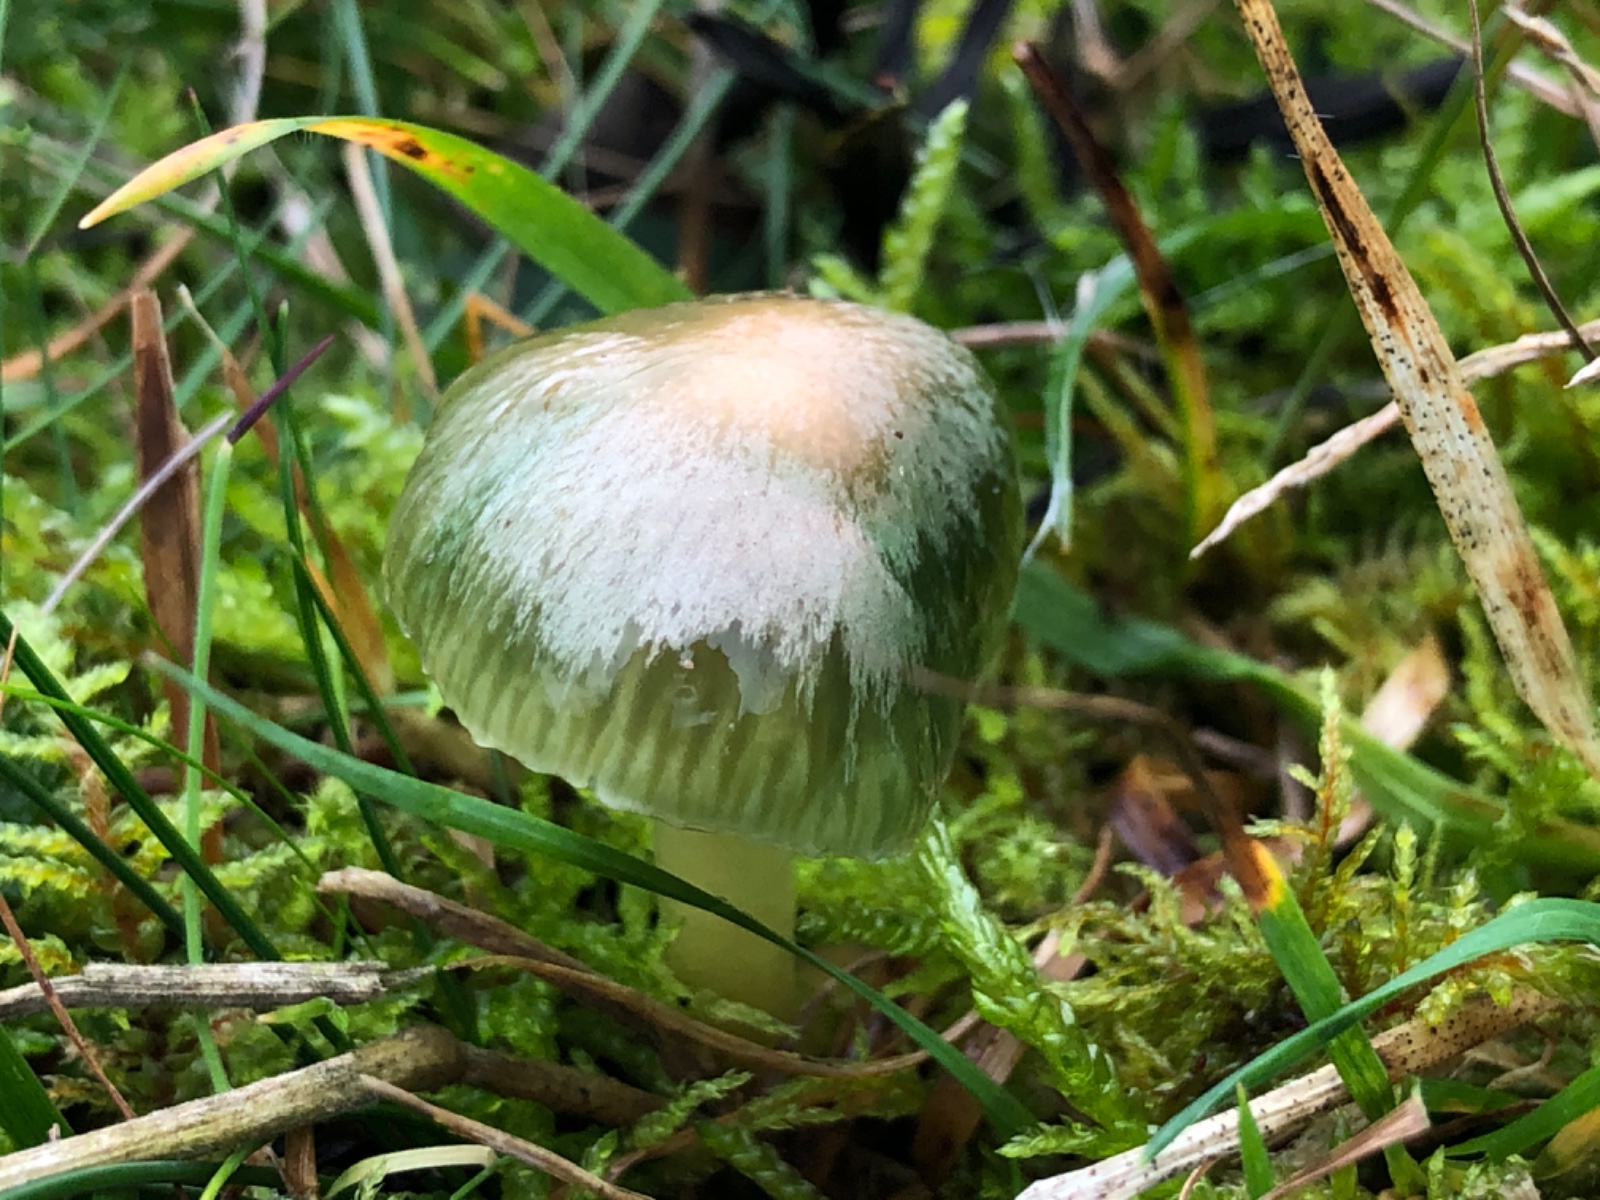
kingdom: Fungi
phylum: Basidiomycota
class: Agaricomycetes
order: Agaricales
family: Hygrophoraceae
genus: Gliophorus
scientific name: Gliophorus psittacinus
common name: papegøje-vokshat
